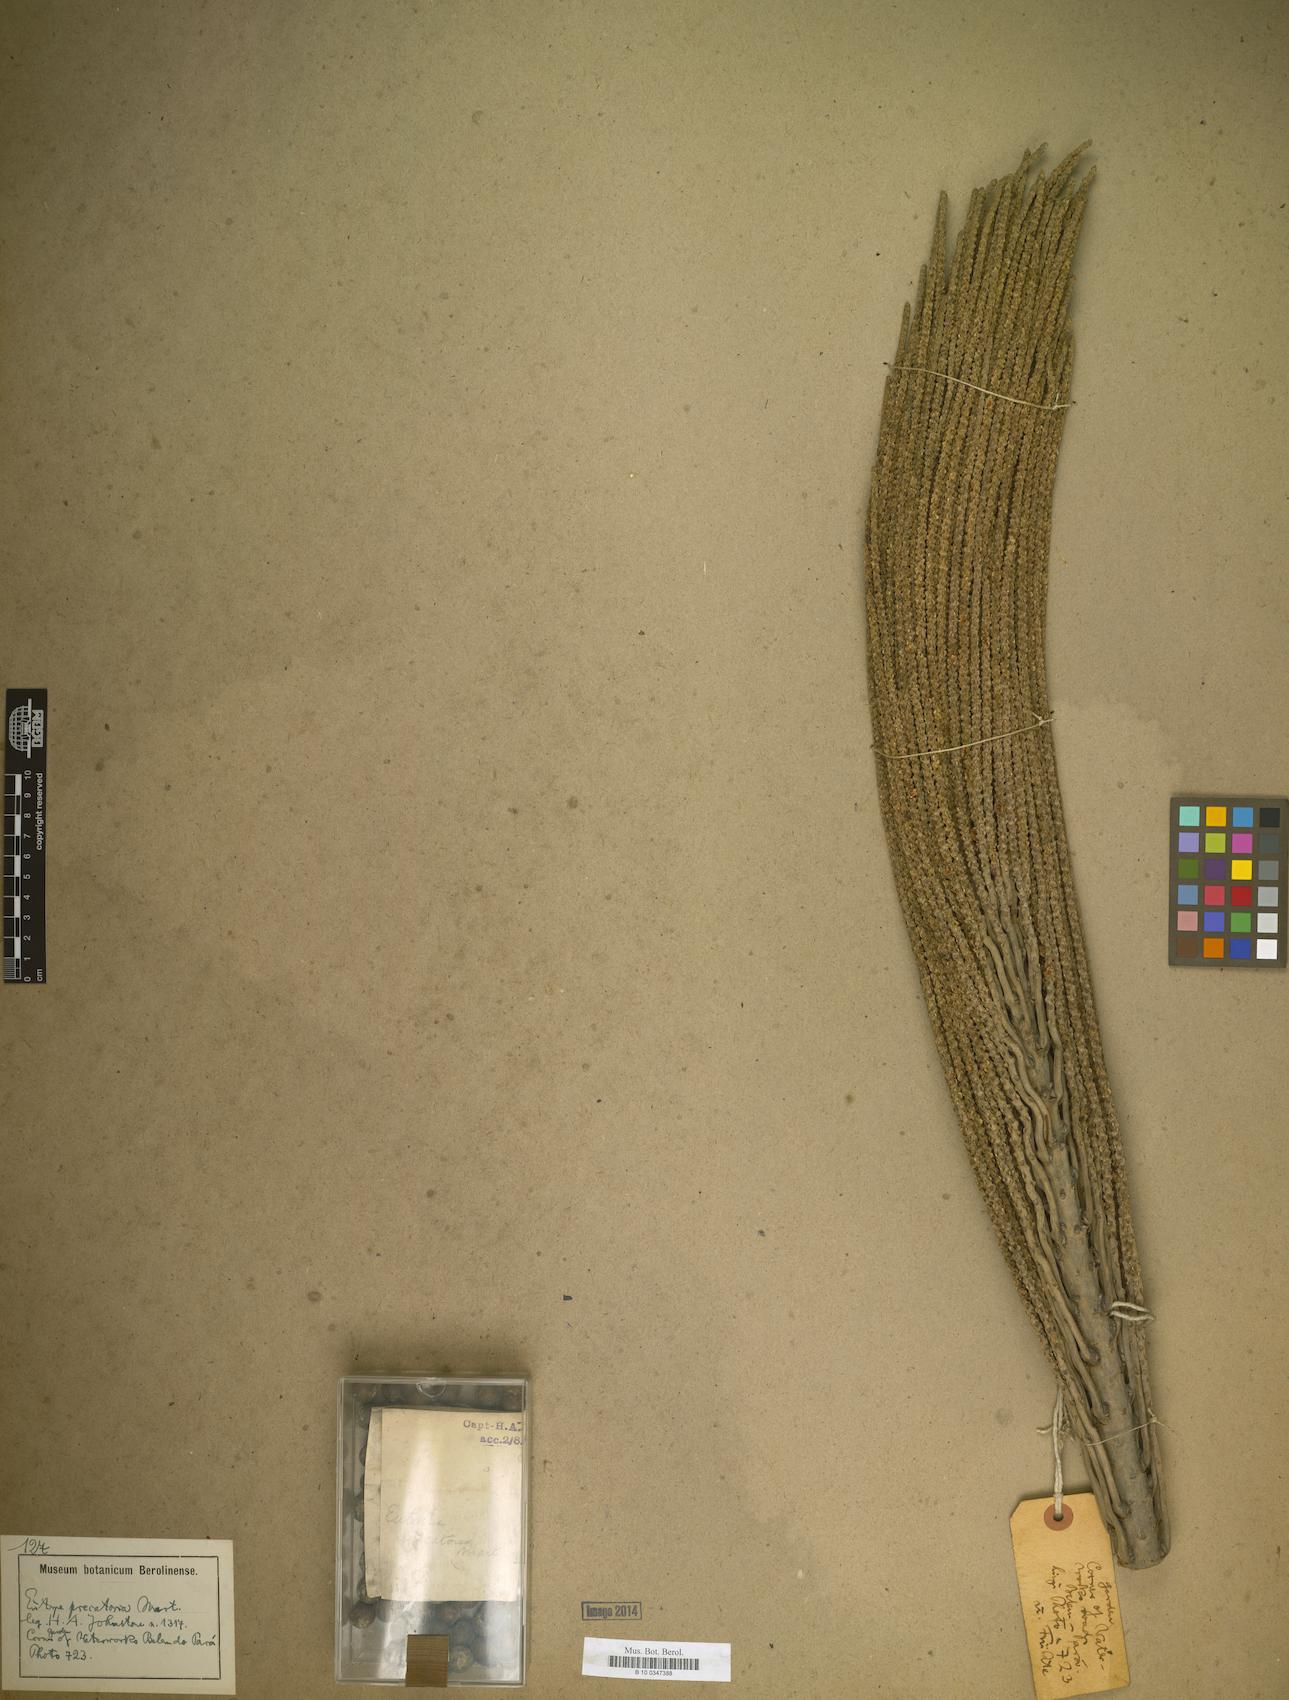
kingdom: Plantae
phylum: Tracheophyta
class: Liliopsida
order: Arecales
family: Arecaceae
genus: Euterpe
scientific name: Euterpe
